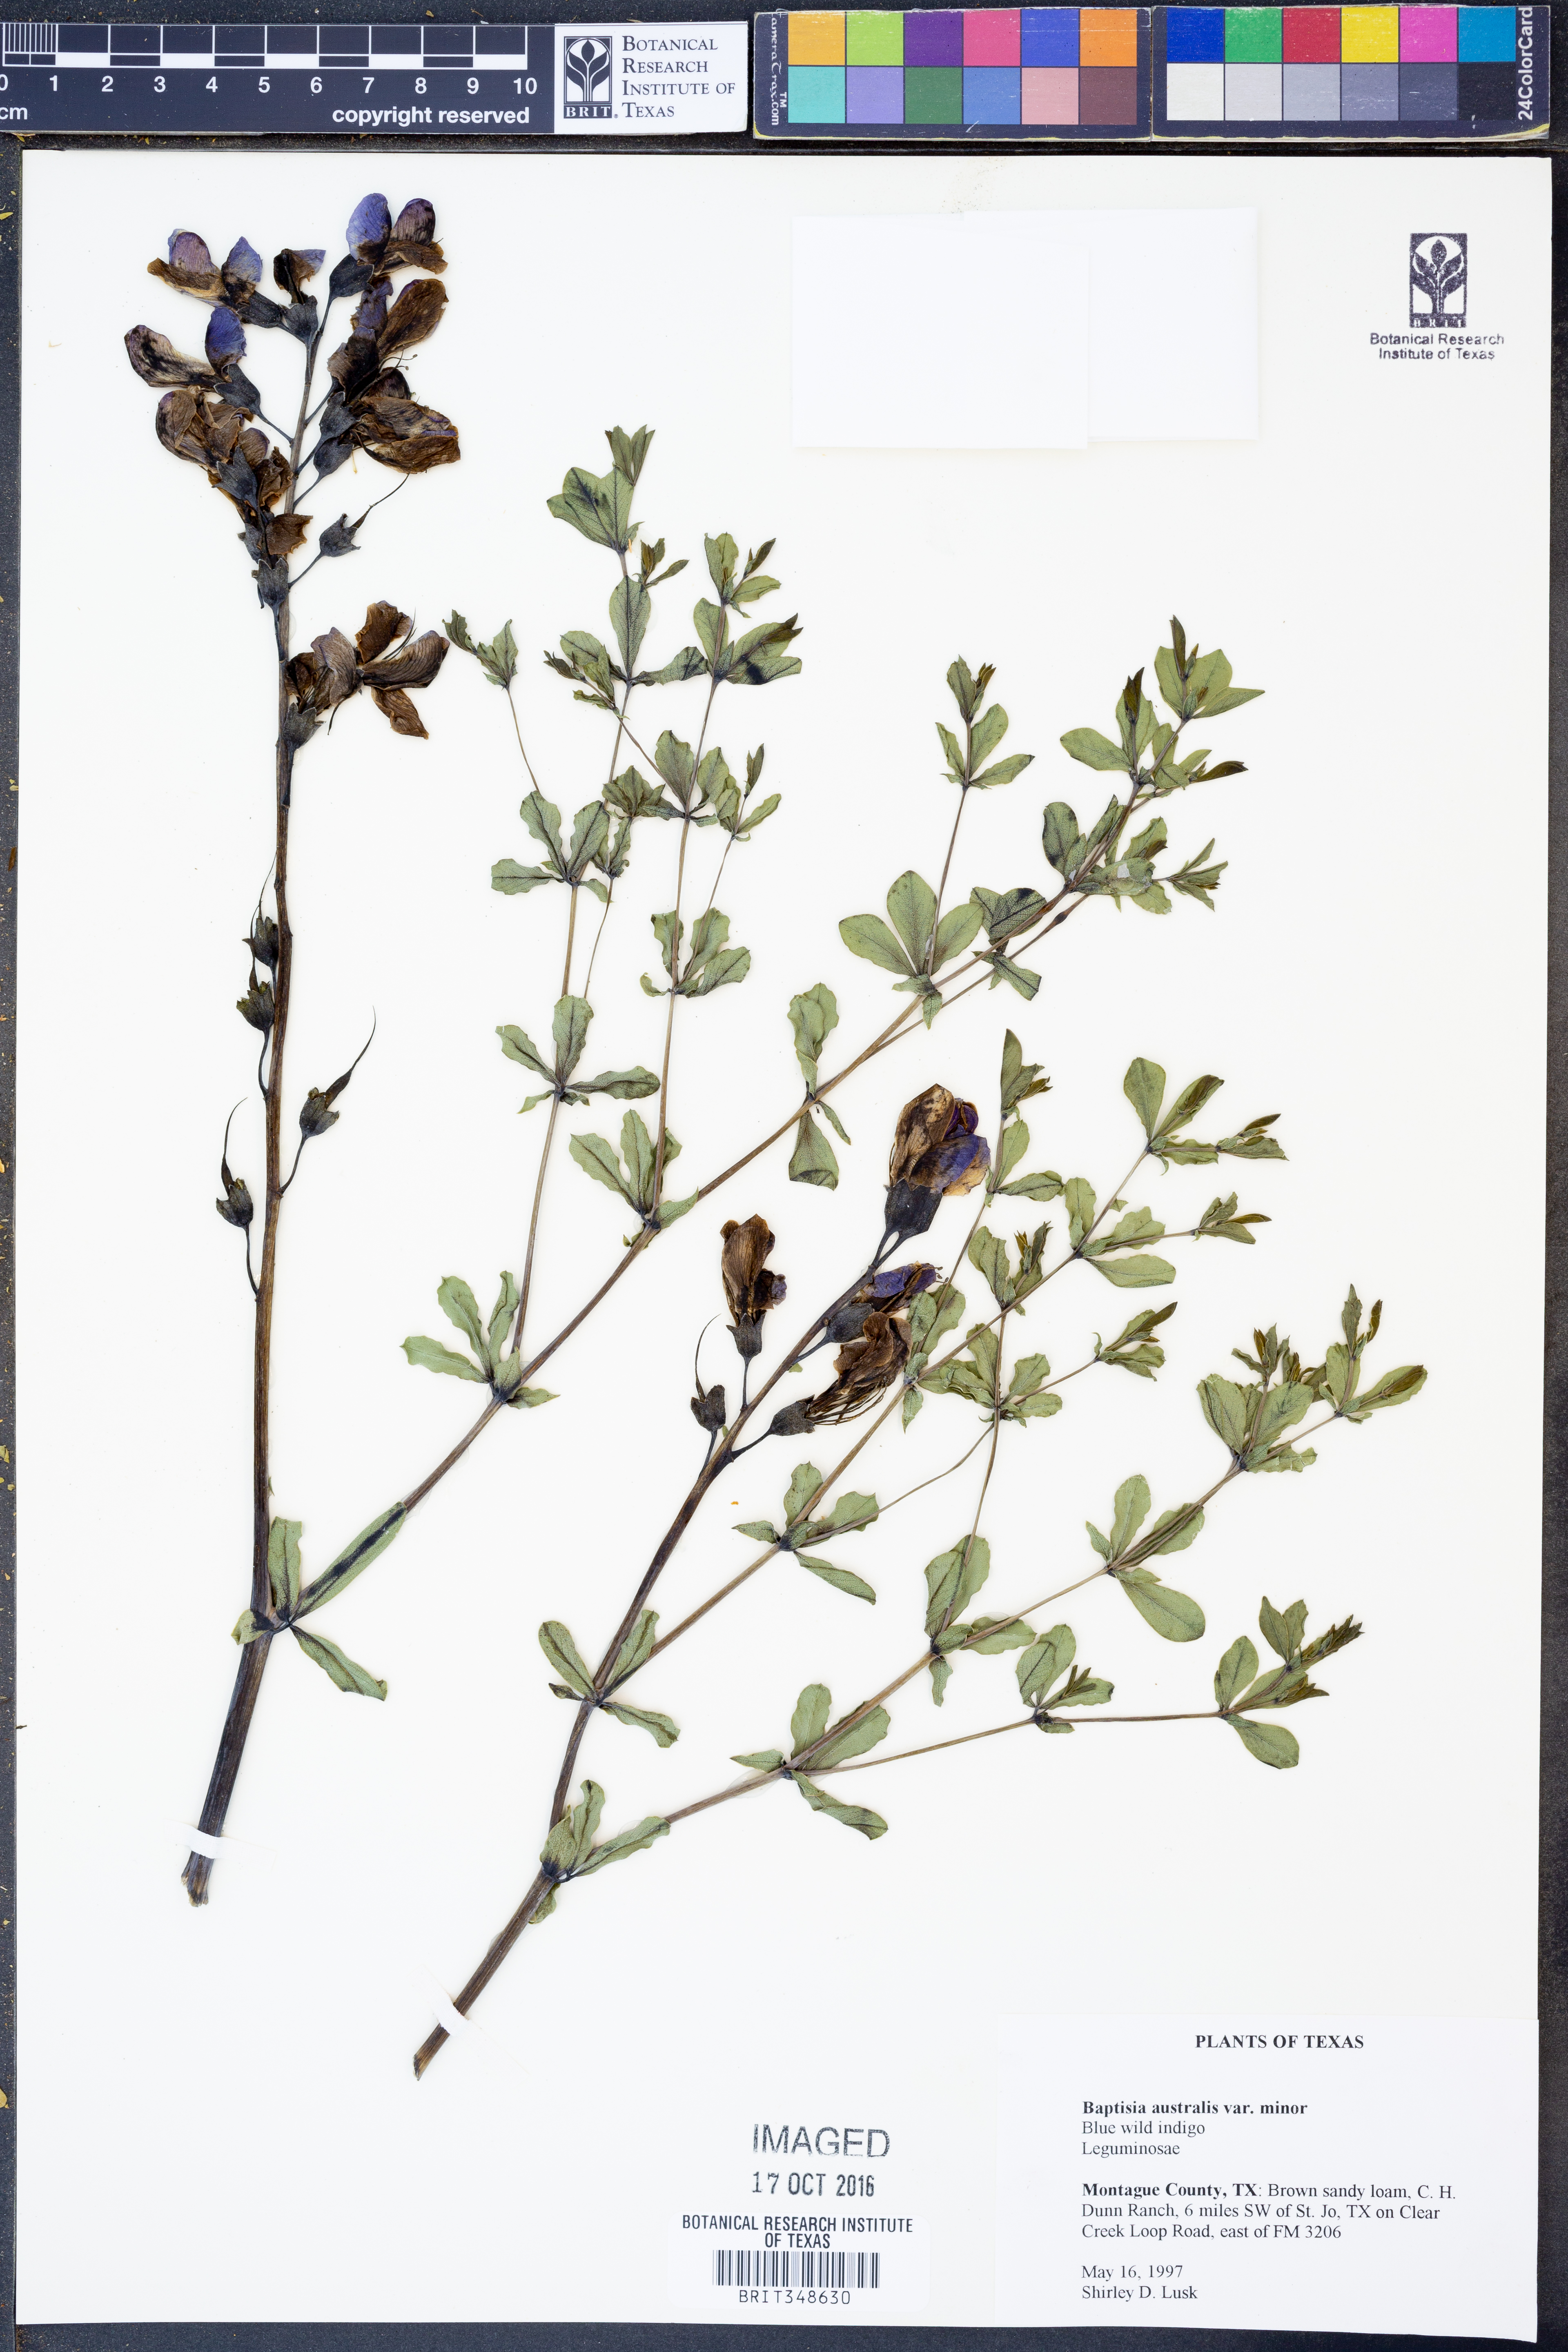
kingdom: Plantae
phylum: Tracheophyta
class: Magnoliopsida
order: Fabales
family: Fabaceae
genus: Baptisia
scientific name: Baptisia australis
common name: Blue false indigo
